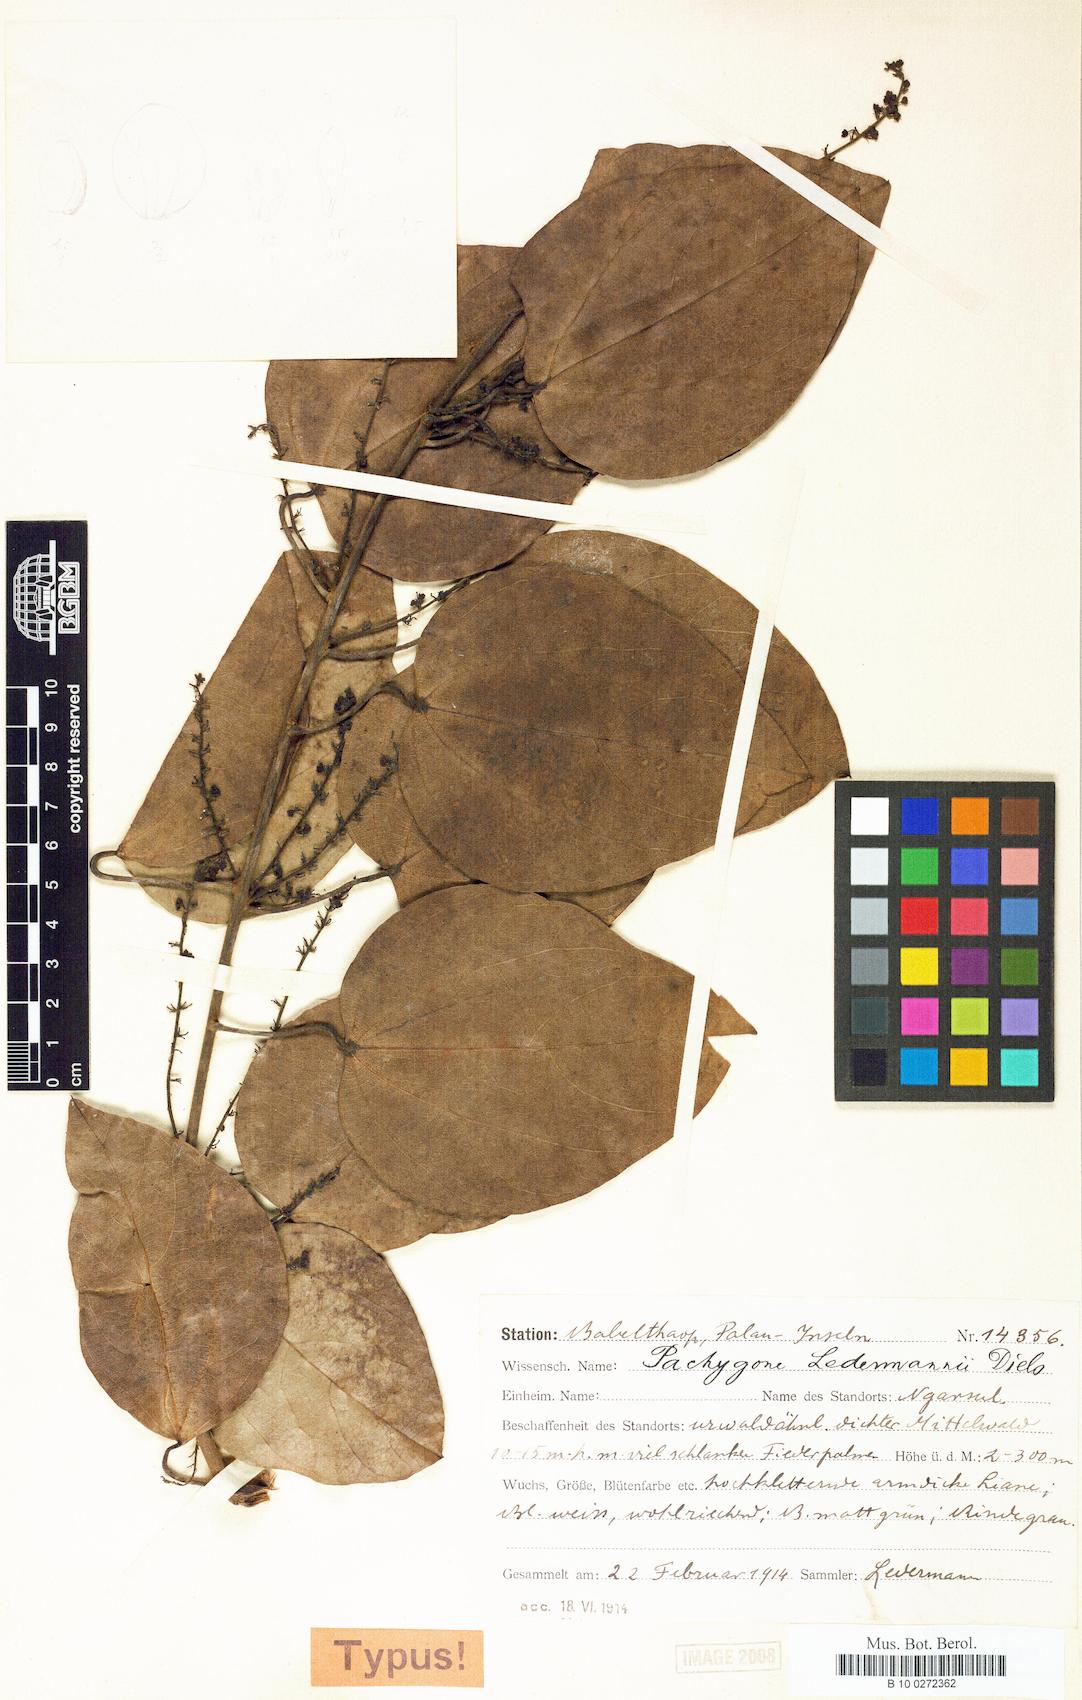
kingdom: Plantae
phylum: Tracheophyta
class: Magnoliopsida
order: Ranunculales
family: Menispermaceae
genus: Pachygone
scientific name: Pachygone ledermannii
